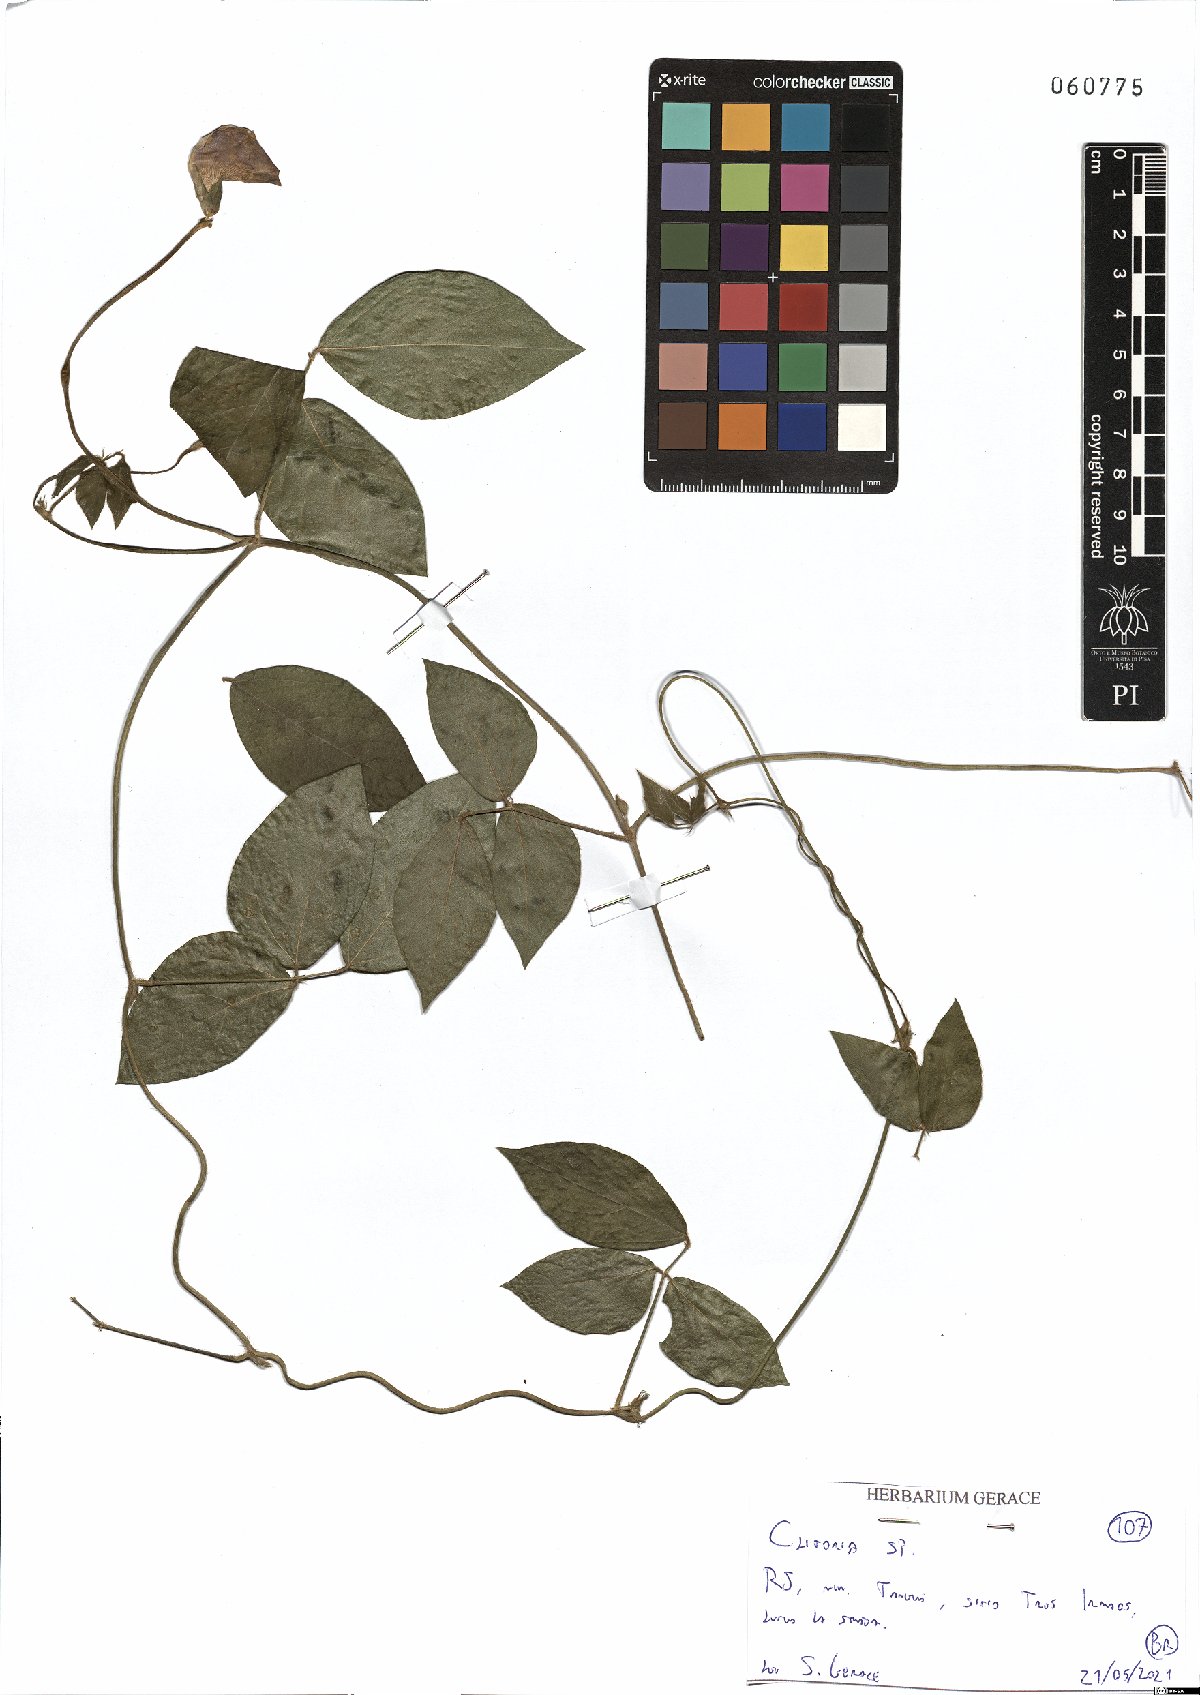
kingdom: Plantae
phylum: Tracheophyta
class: Magnoliopsida
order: Fabales
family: Fabaceae
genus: Clitoria
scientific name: Clitoria
